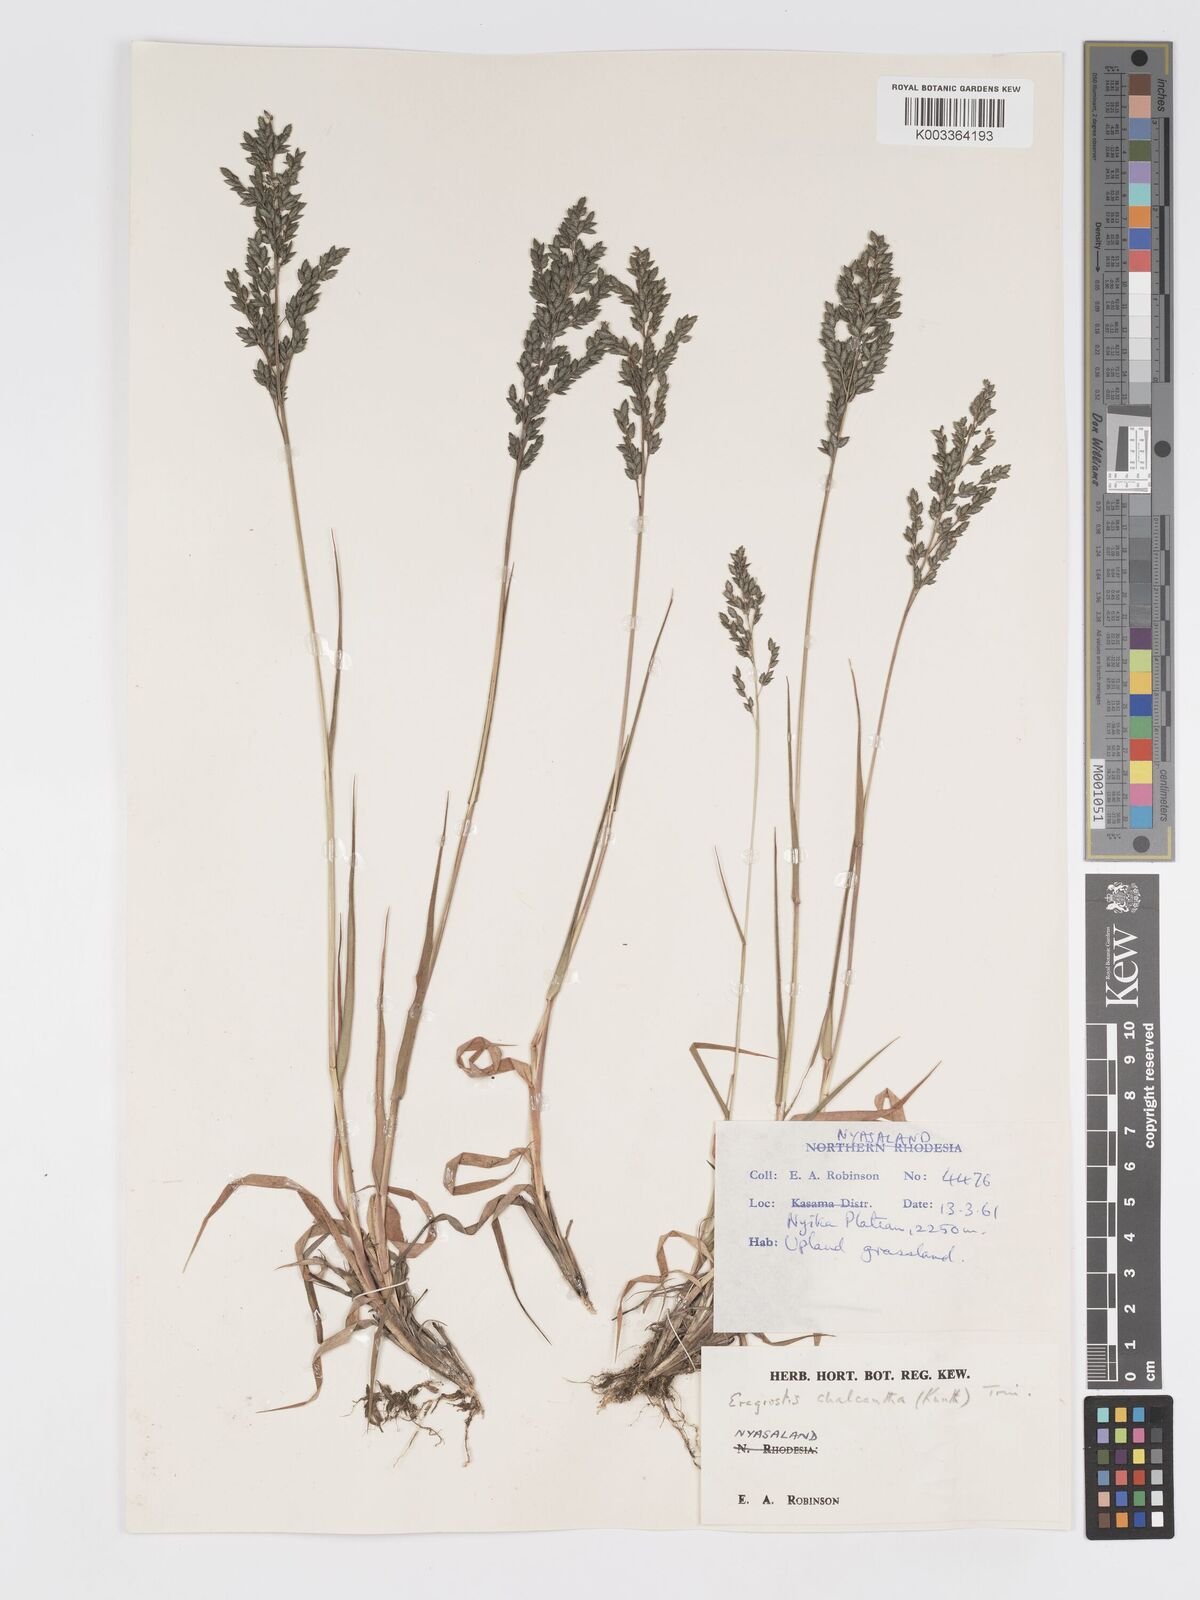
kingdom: Plantae
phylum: Tracheophyta
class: Liliopsida
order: Poales
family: Poaceae
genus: Eragrostis
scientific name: Eragrostis racemosa
